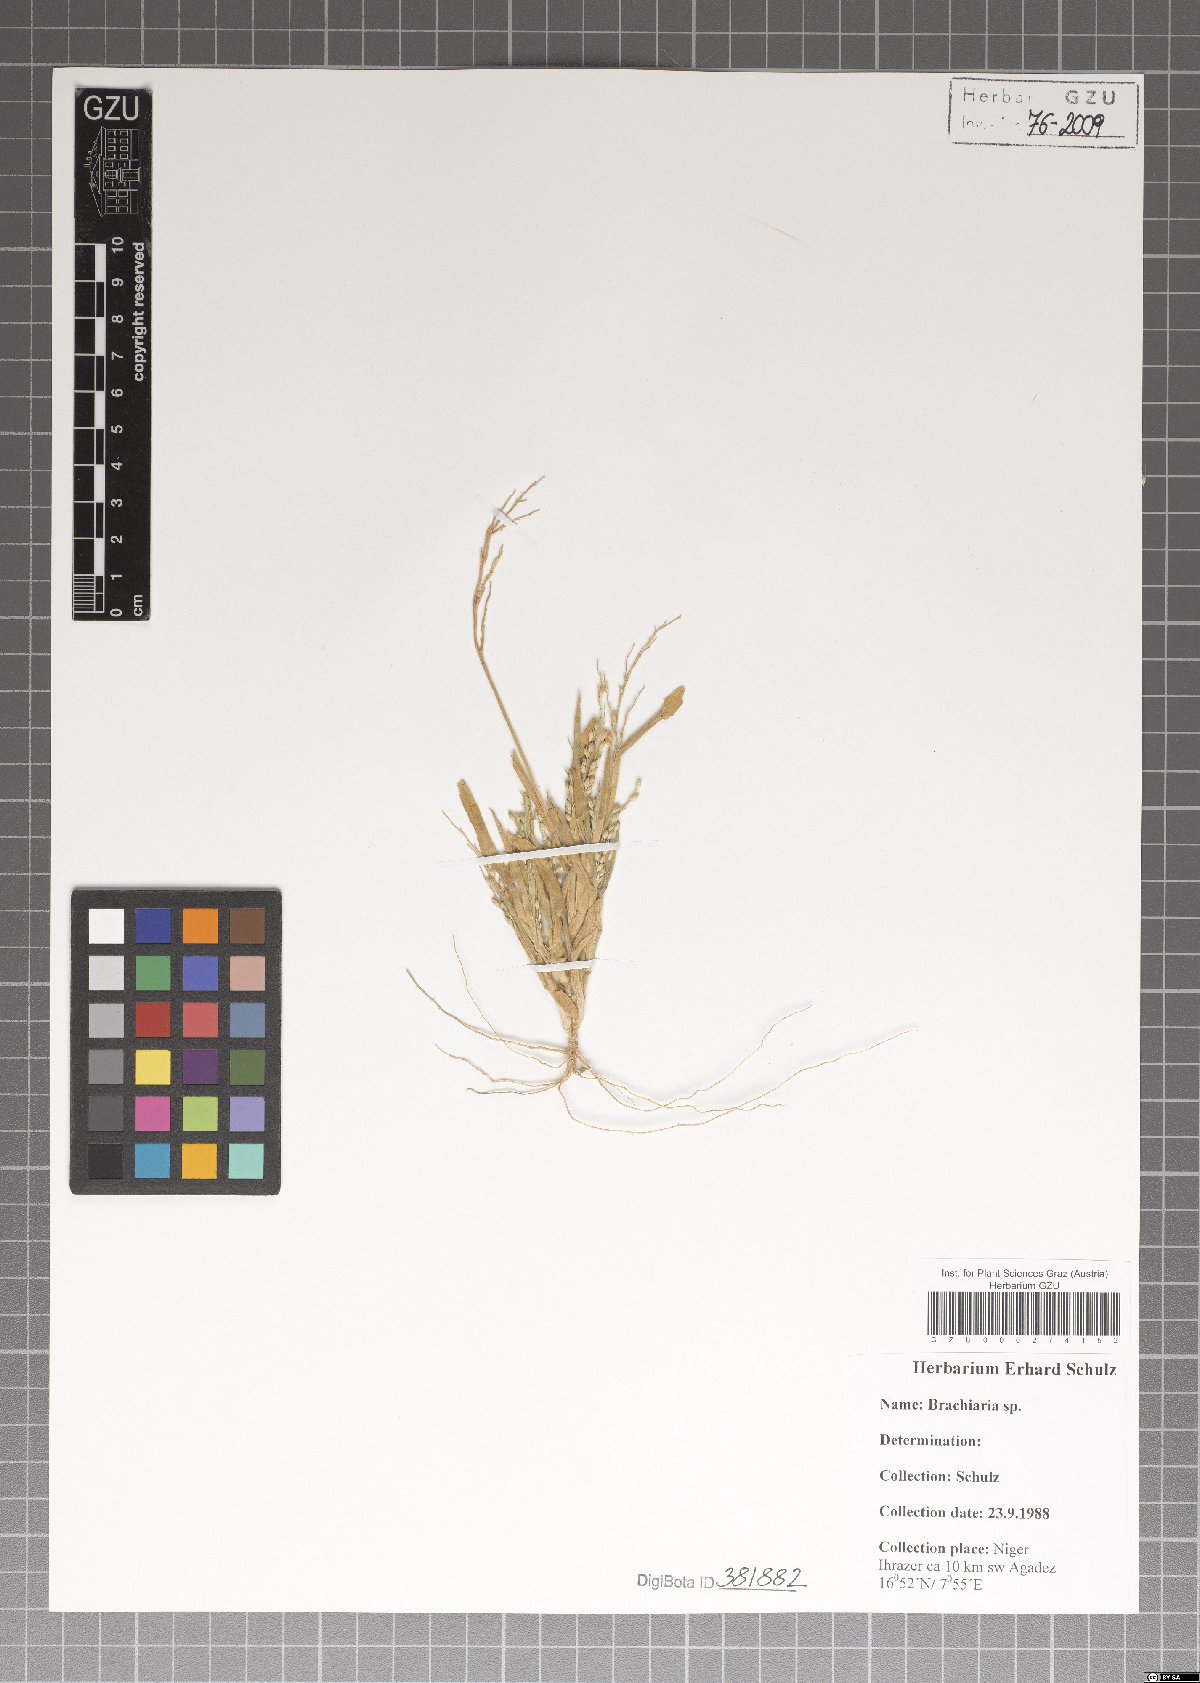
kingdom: Plantae
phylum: Tracheophyta
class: Liliopsida
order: Poales
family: Poaceae
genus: Brachiaria
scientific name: Brachiaria
